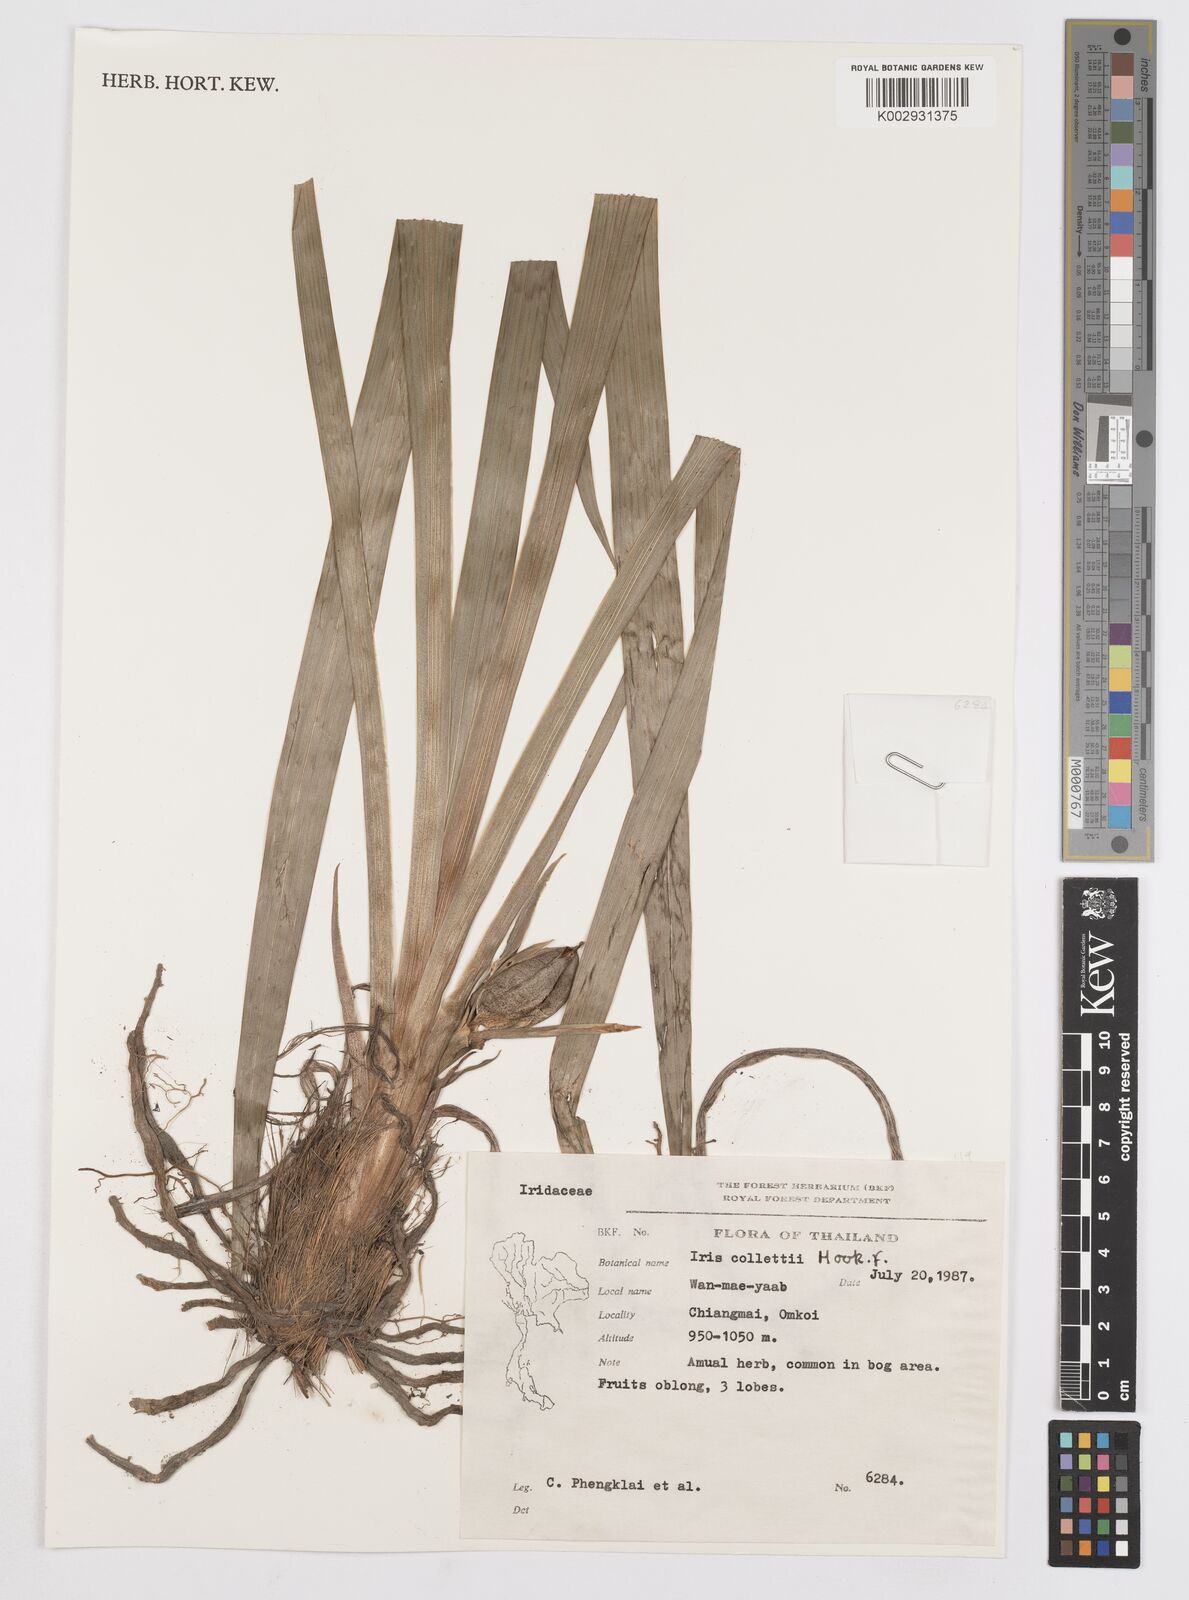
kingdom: Plantae
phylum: Tracheophyta
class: Liliopsida
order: Asparagales
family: Iridaceae
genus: Iris
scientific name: Iris collettii
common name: Plateau iris
